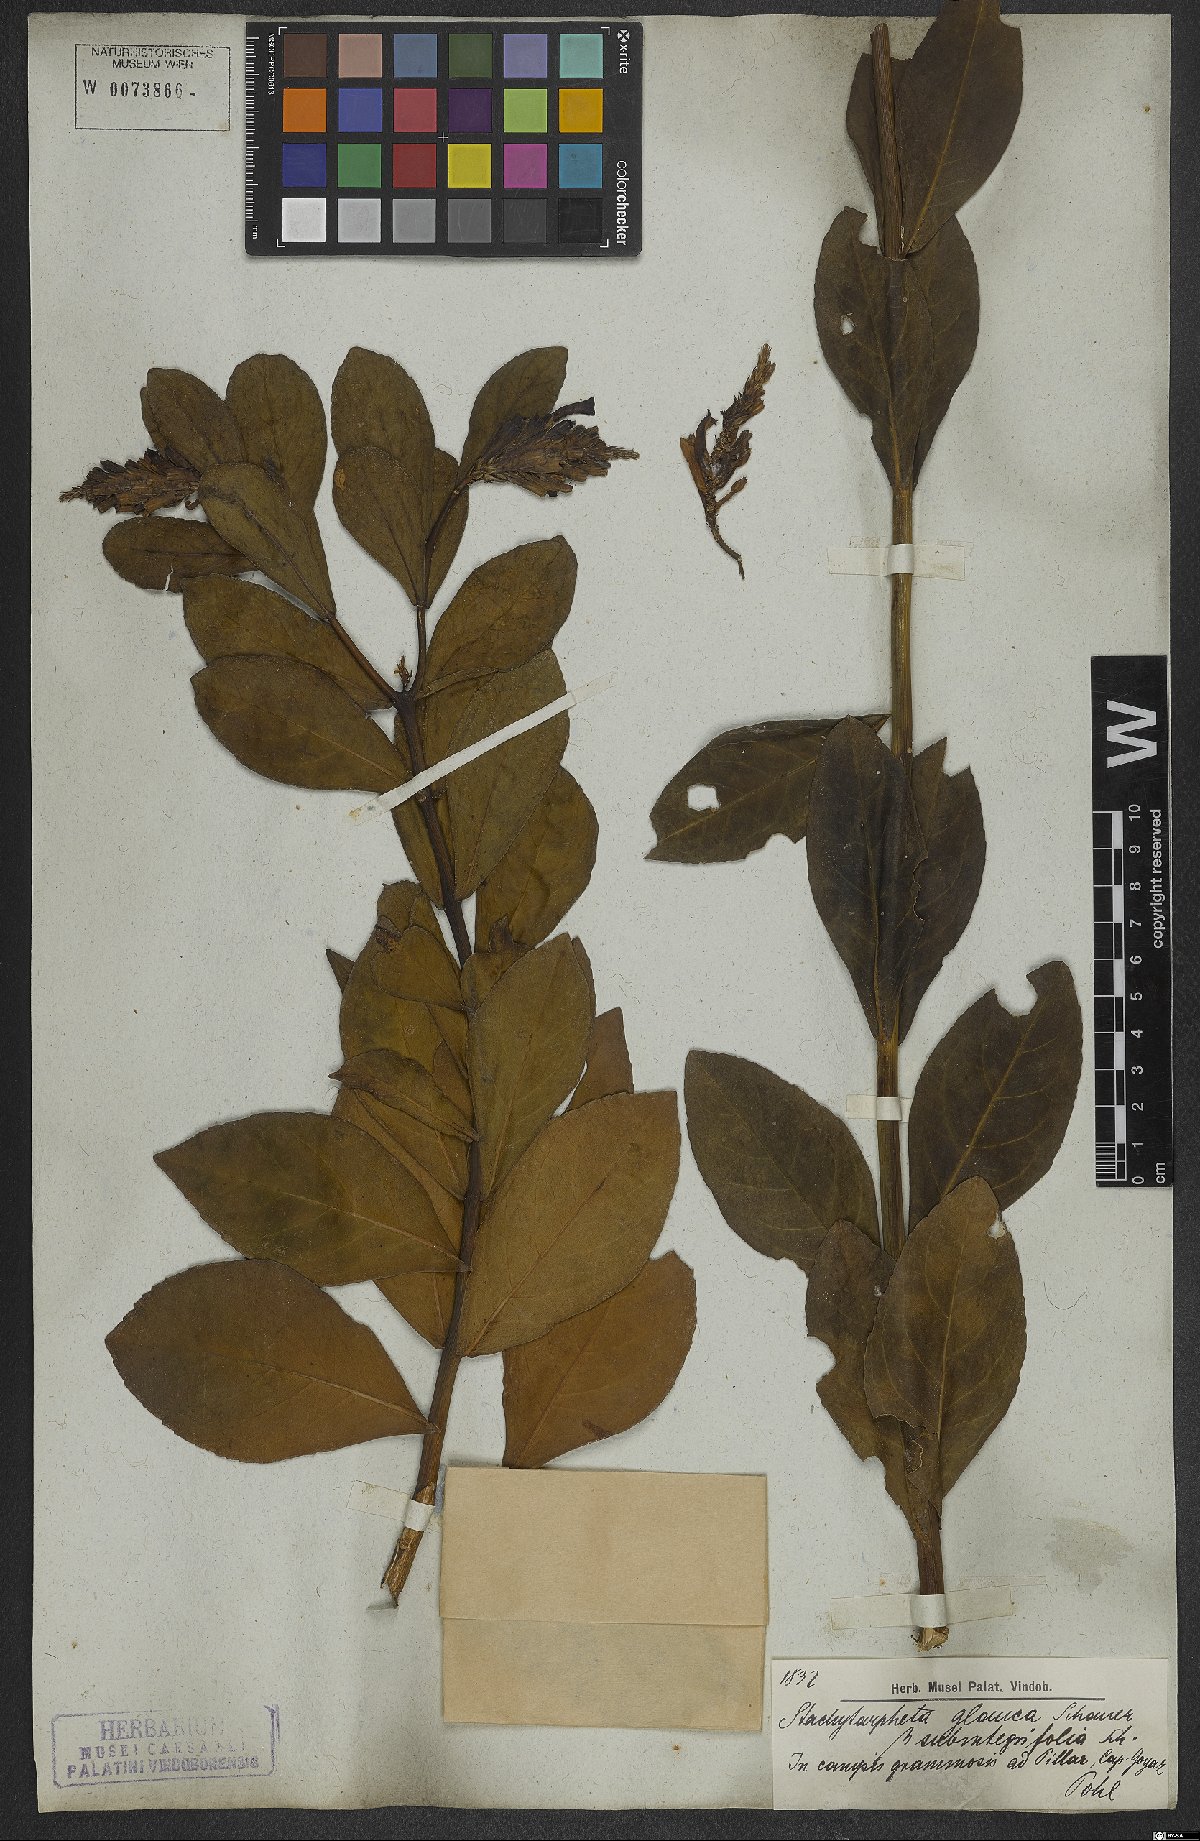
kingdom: Plantae
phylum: Tracheophyta
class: Magnoliopsida
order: Lamiales
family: Verbenaceae
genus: Stachytarpheta
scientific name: Stachytarpheta integrifolia
